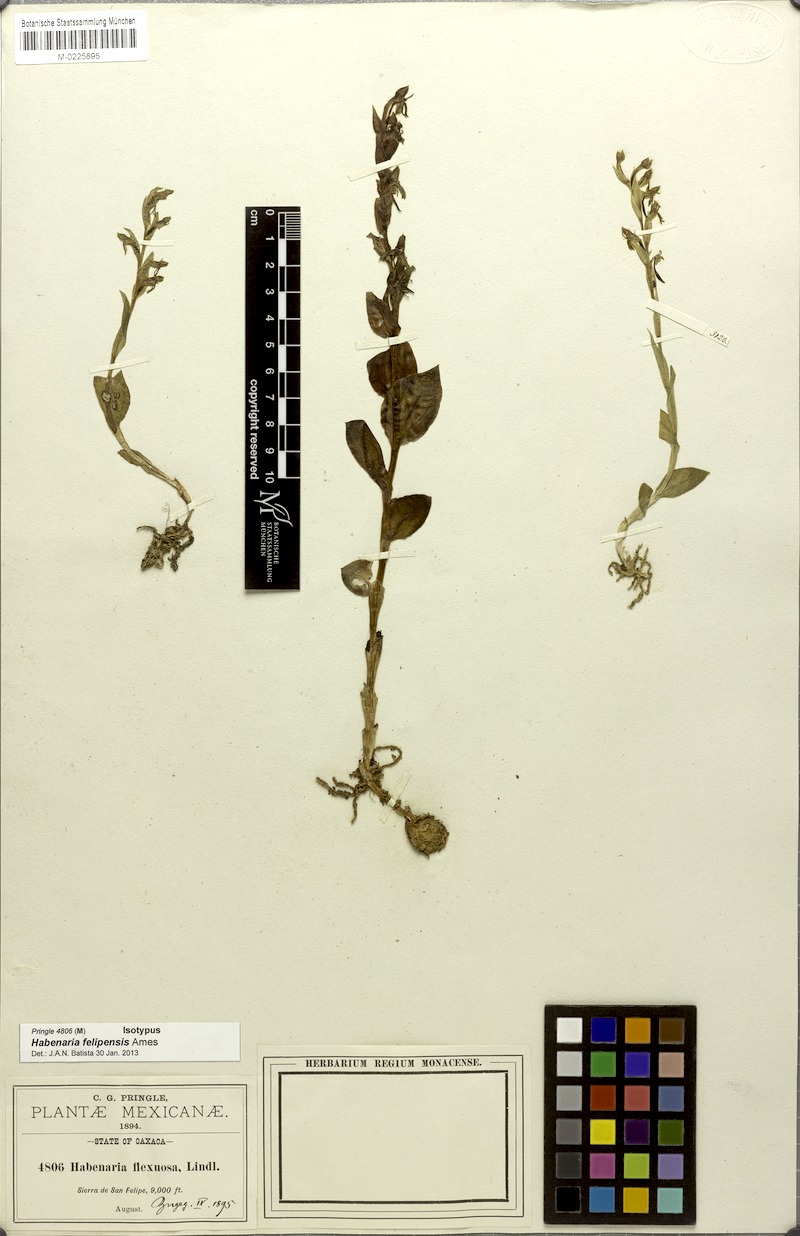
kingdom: Plantae
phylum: Tracheophyta
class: Liliopsida
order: Asparagales
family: Orchidaceae
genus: Habenaria
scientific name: Habenaria felipensis
